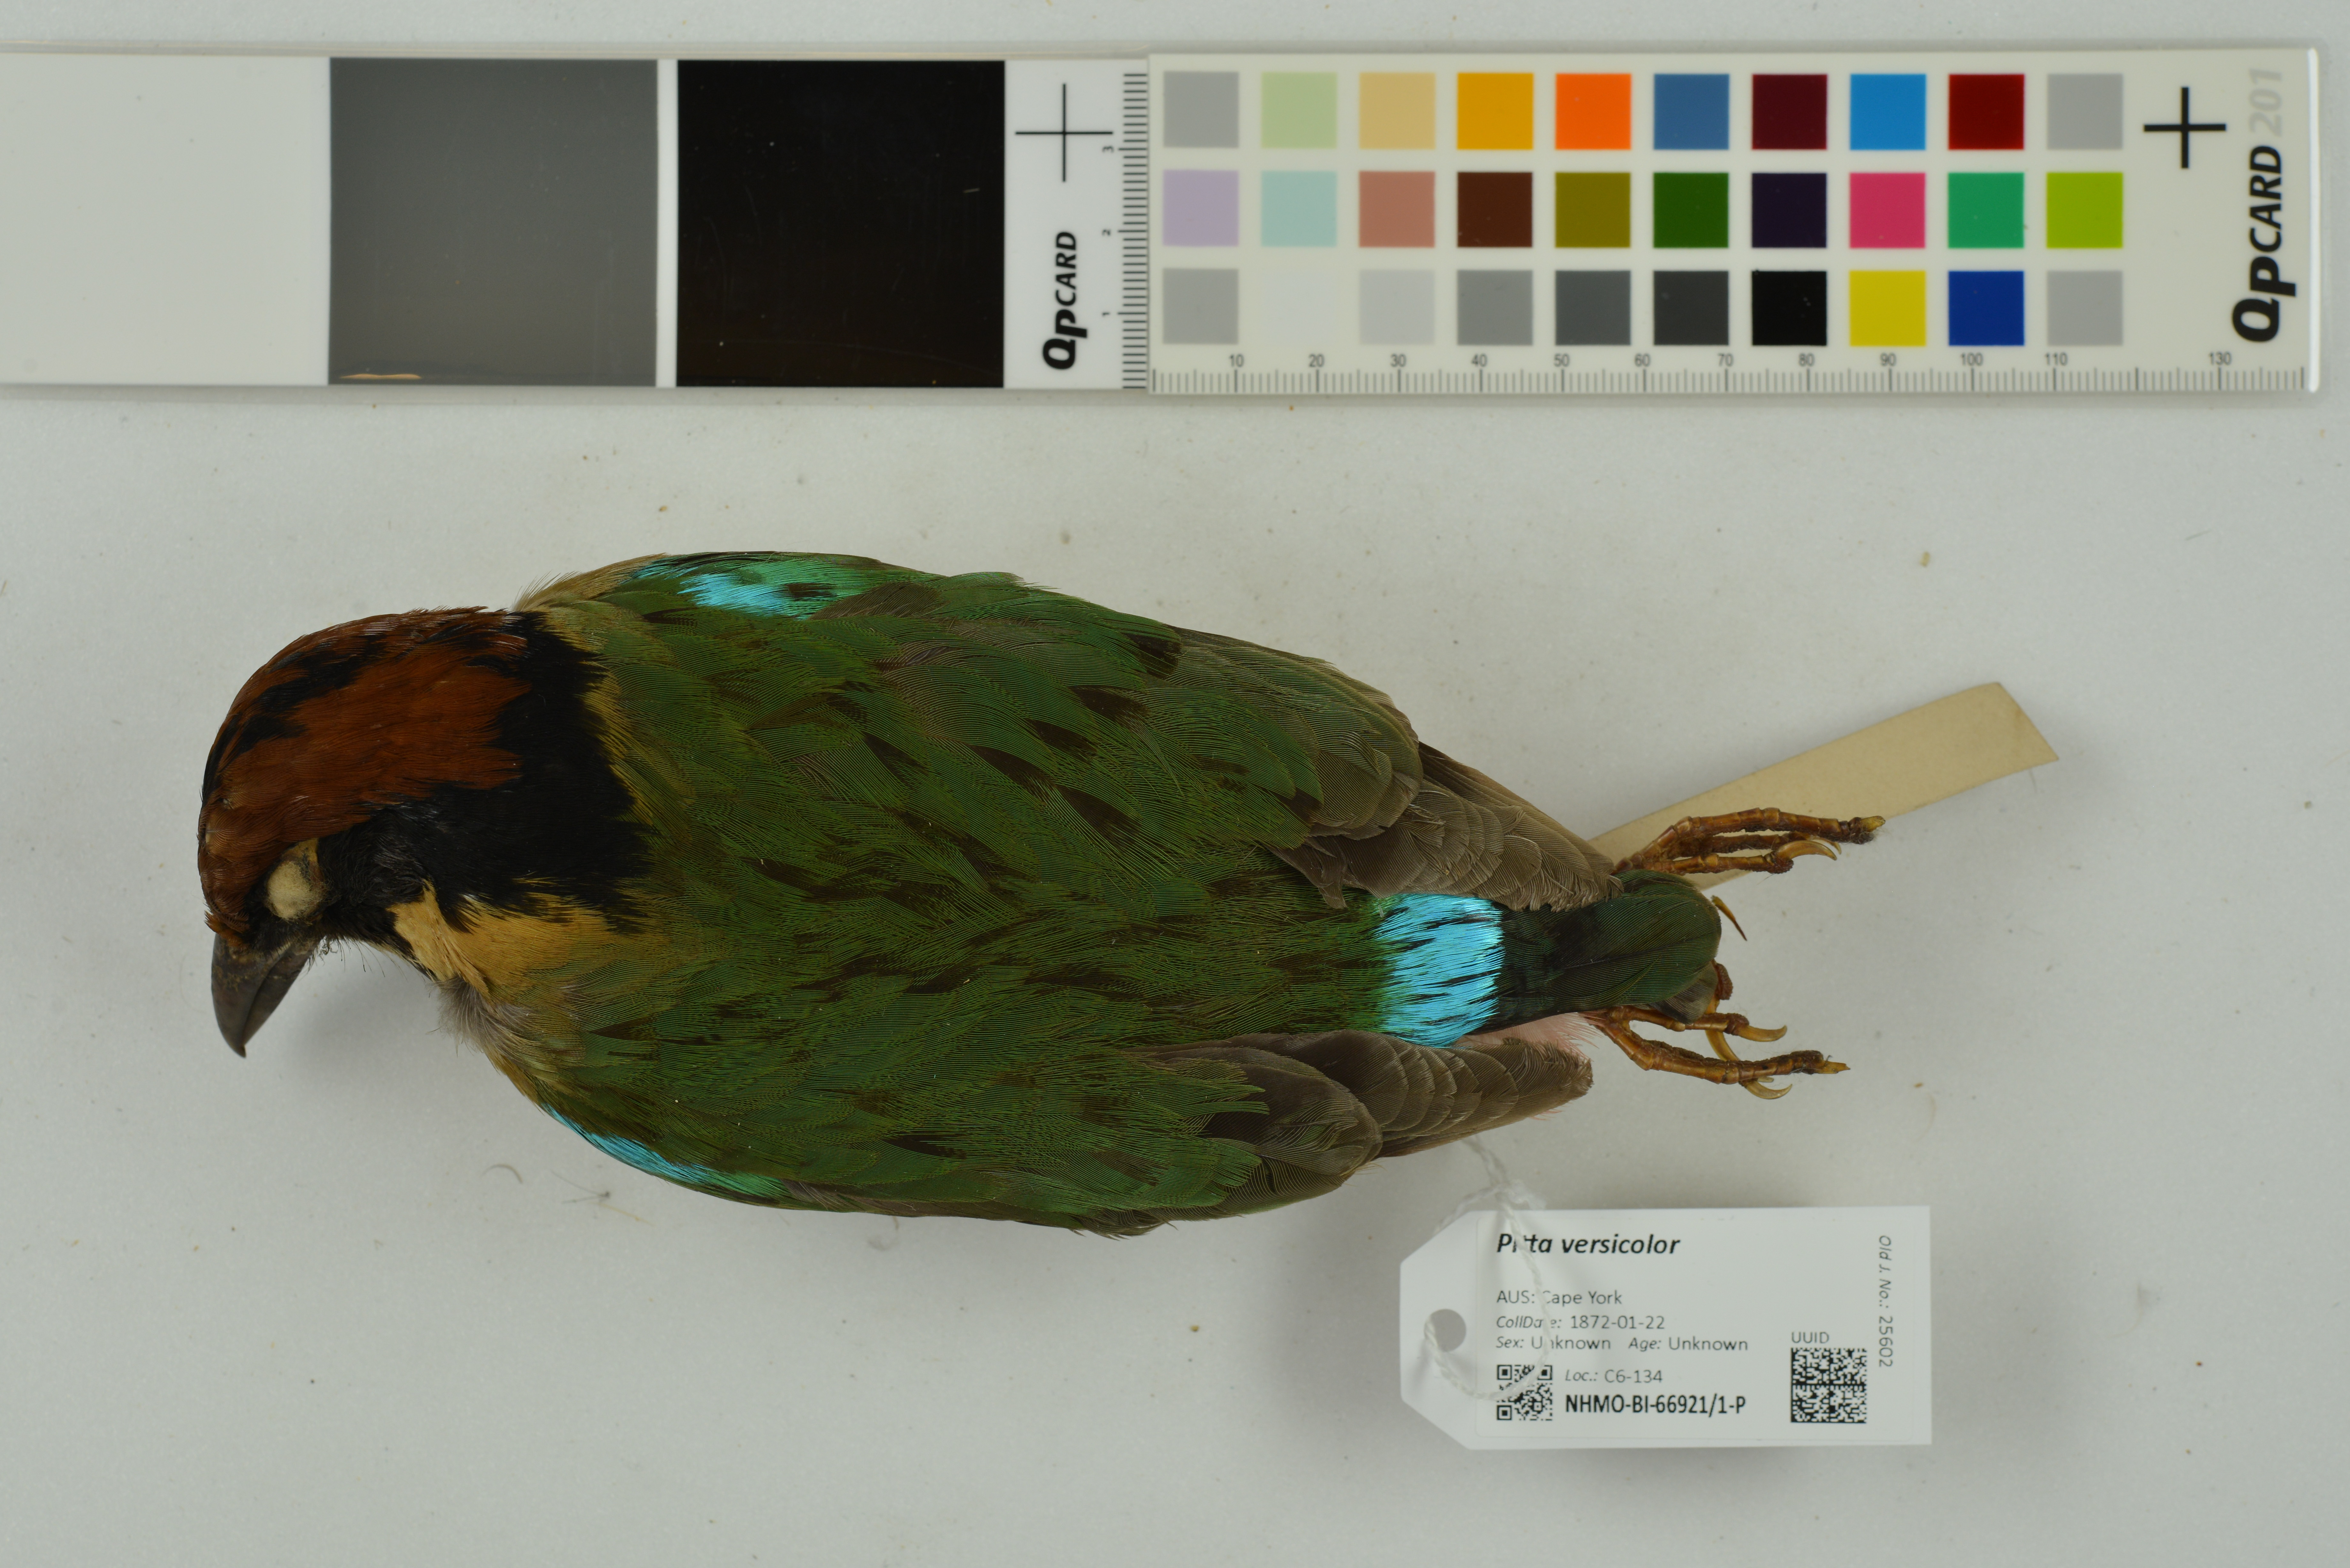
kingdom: Animalia
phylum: Chordata
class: Aves
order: Passeriformes
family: Pittidae
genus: Pitta
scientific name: Pitta versicolor
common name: Noisy pitta
